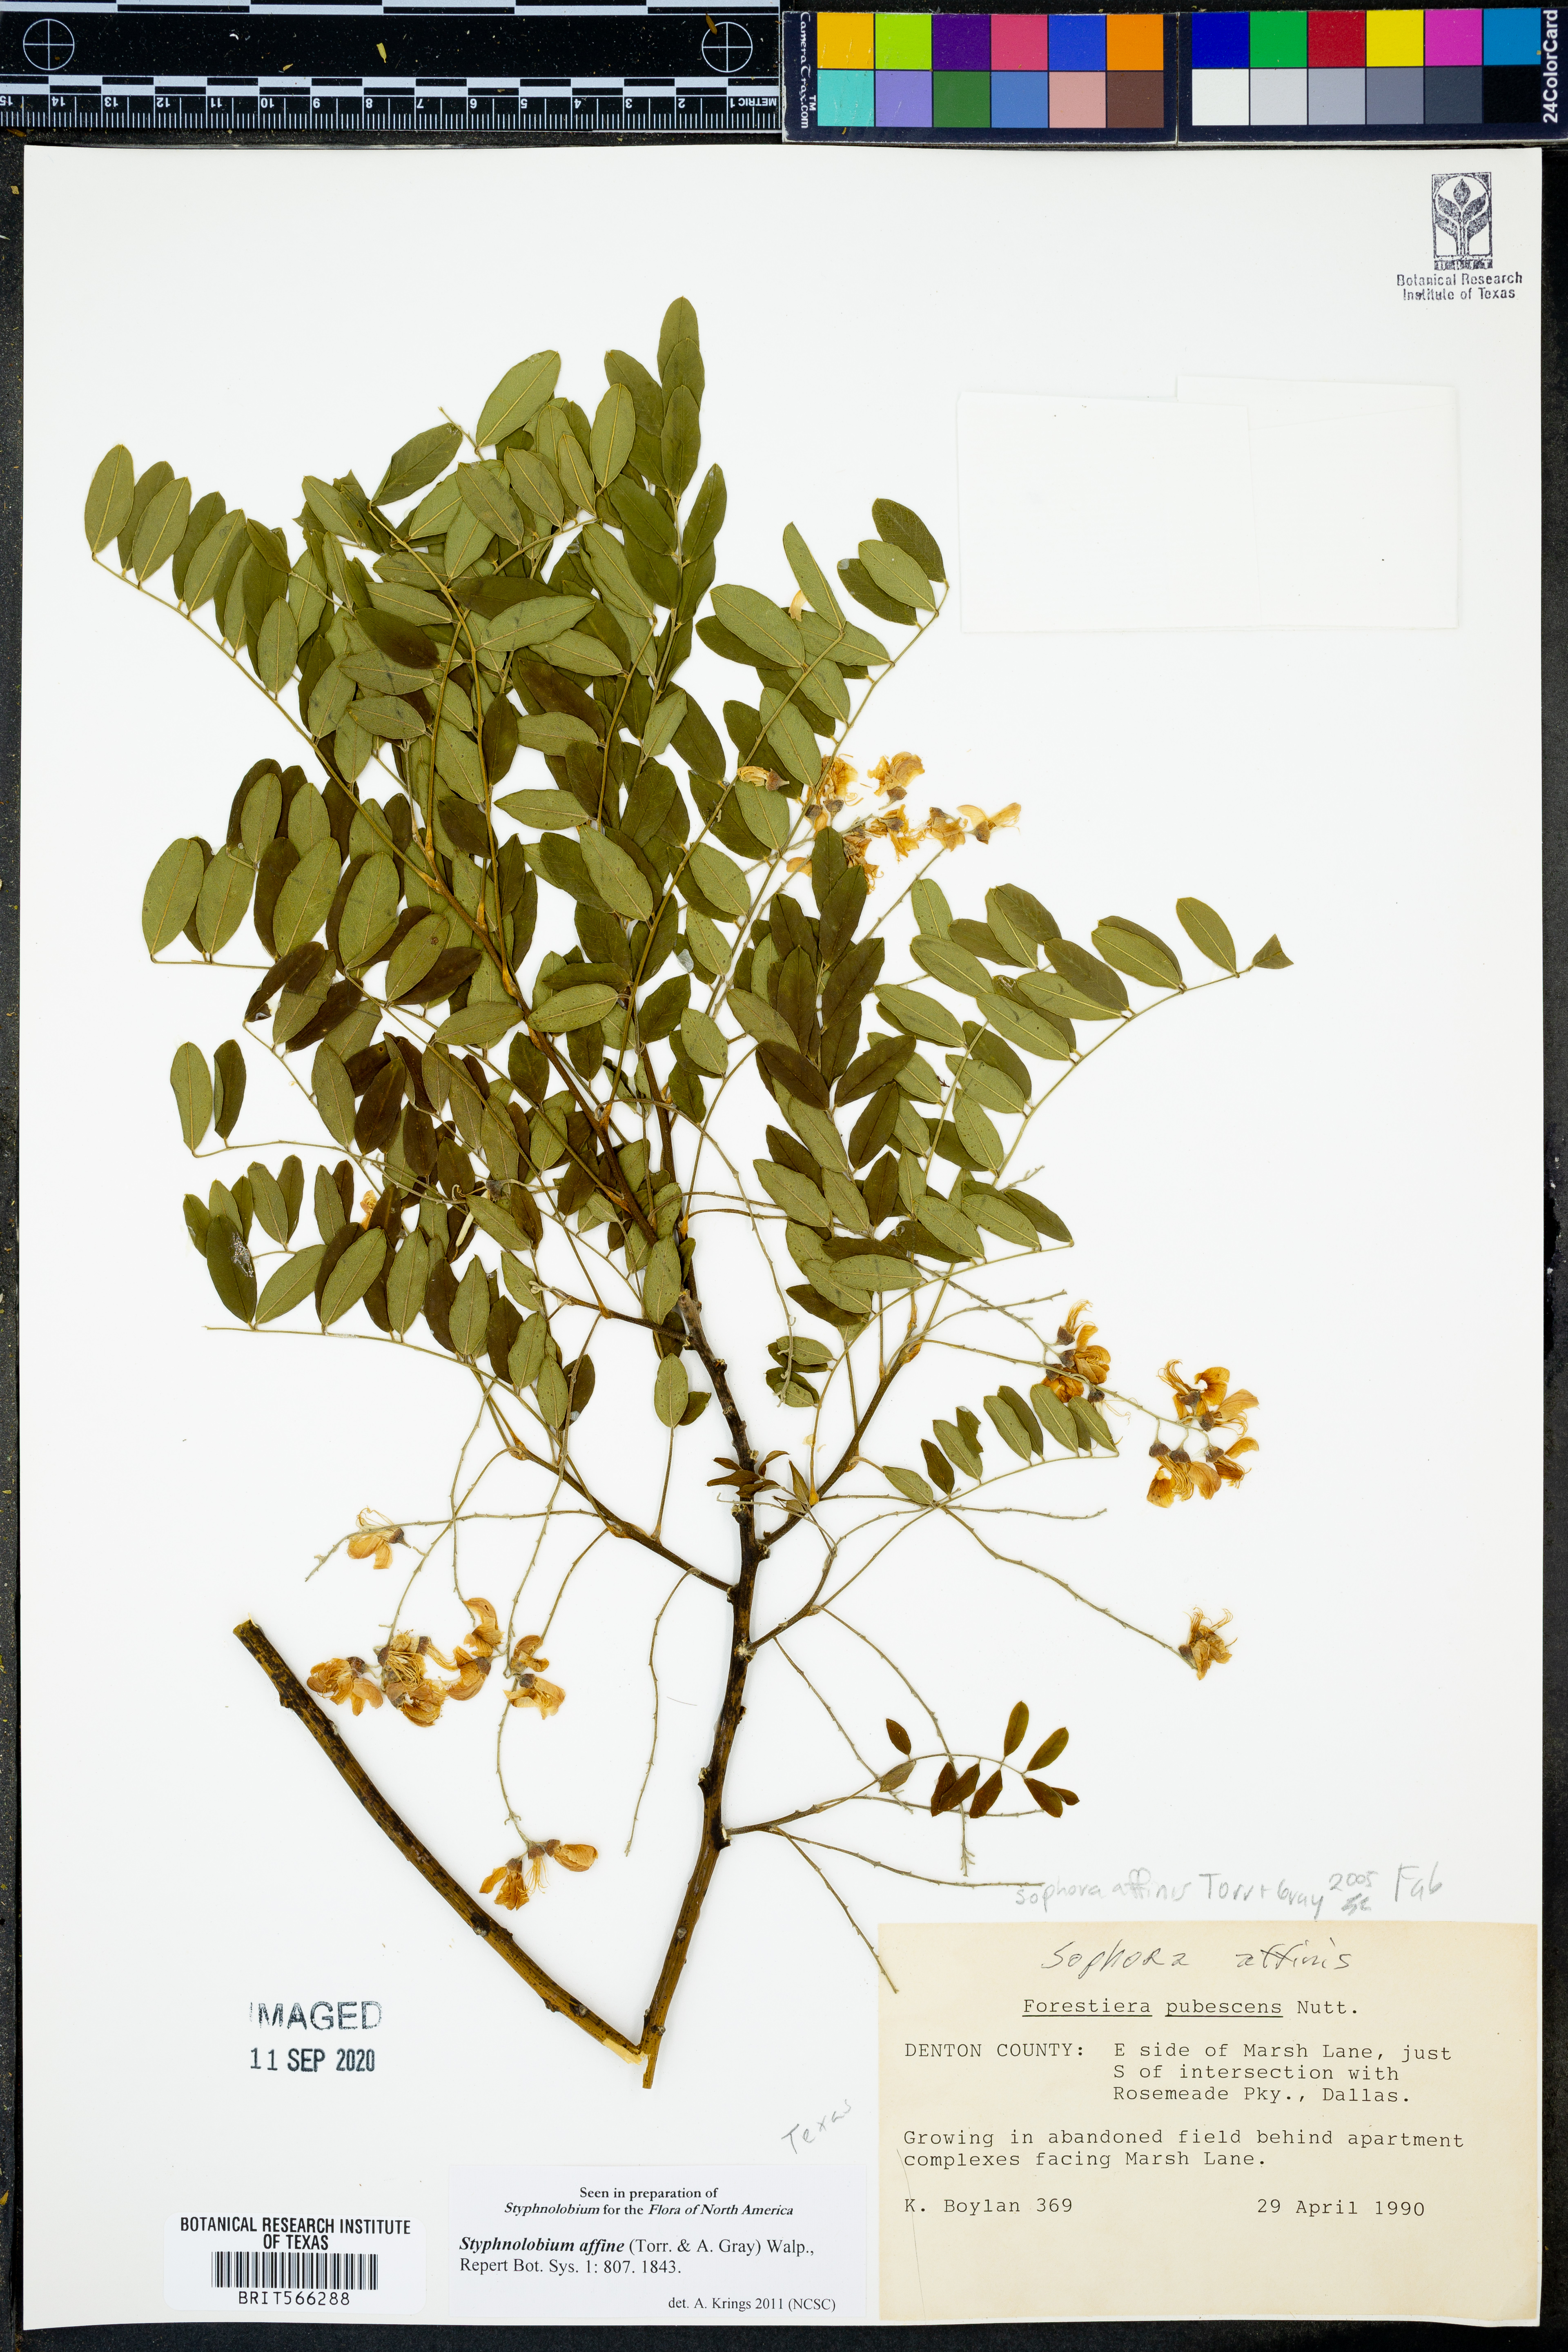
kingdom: Plantae
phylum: Tracheophyta
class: Magnoliopsida
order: Fabales
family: Fabaceae
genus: Styphnolobium
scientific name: Styphnolobium affine
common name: Texas sophora
